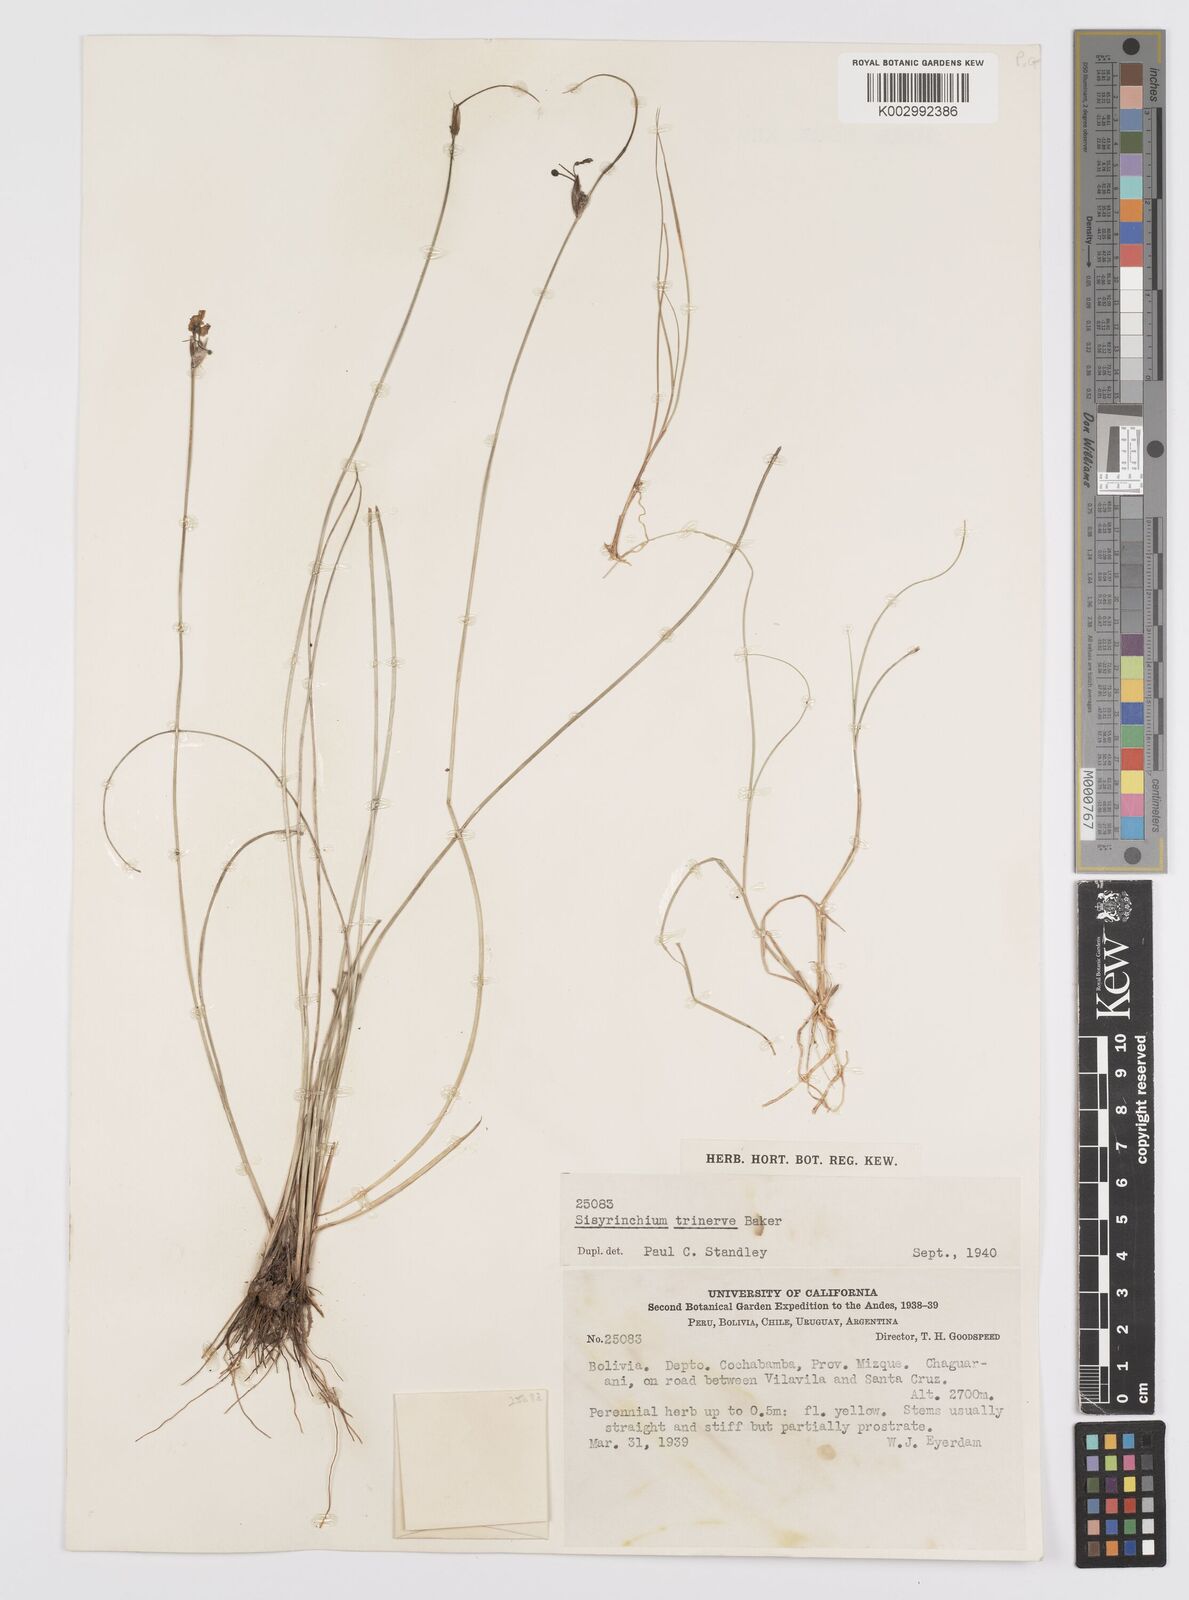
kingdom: Plantae
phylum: Tracheophyta
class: Liliopsida
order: Asparagales
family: Iridaceae
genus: Olsynium
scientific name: Olsynium trinerve
